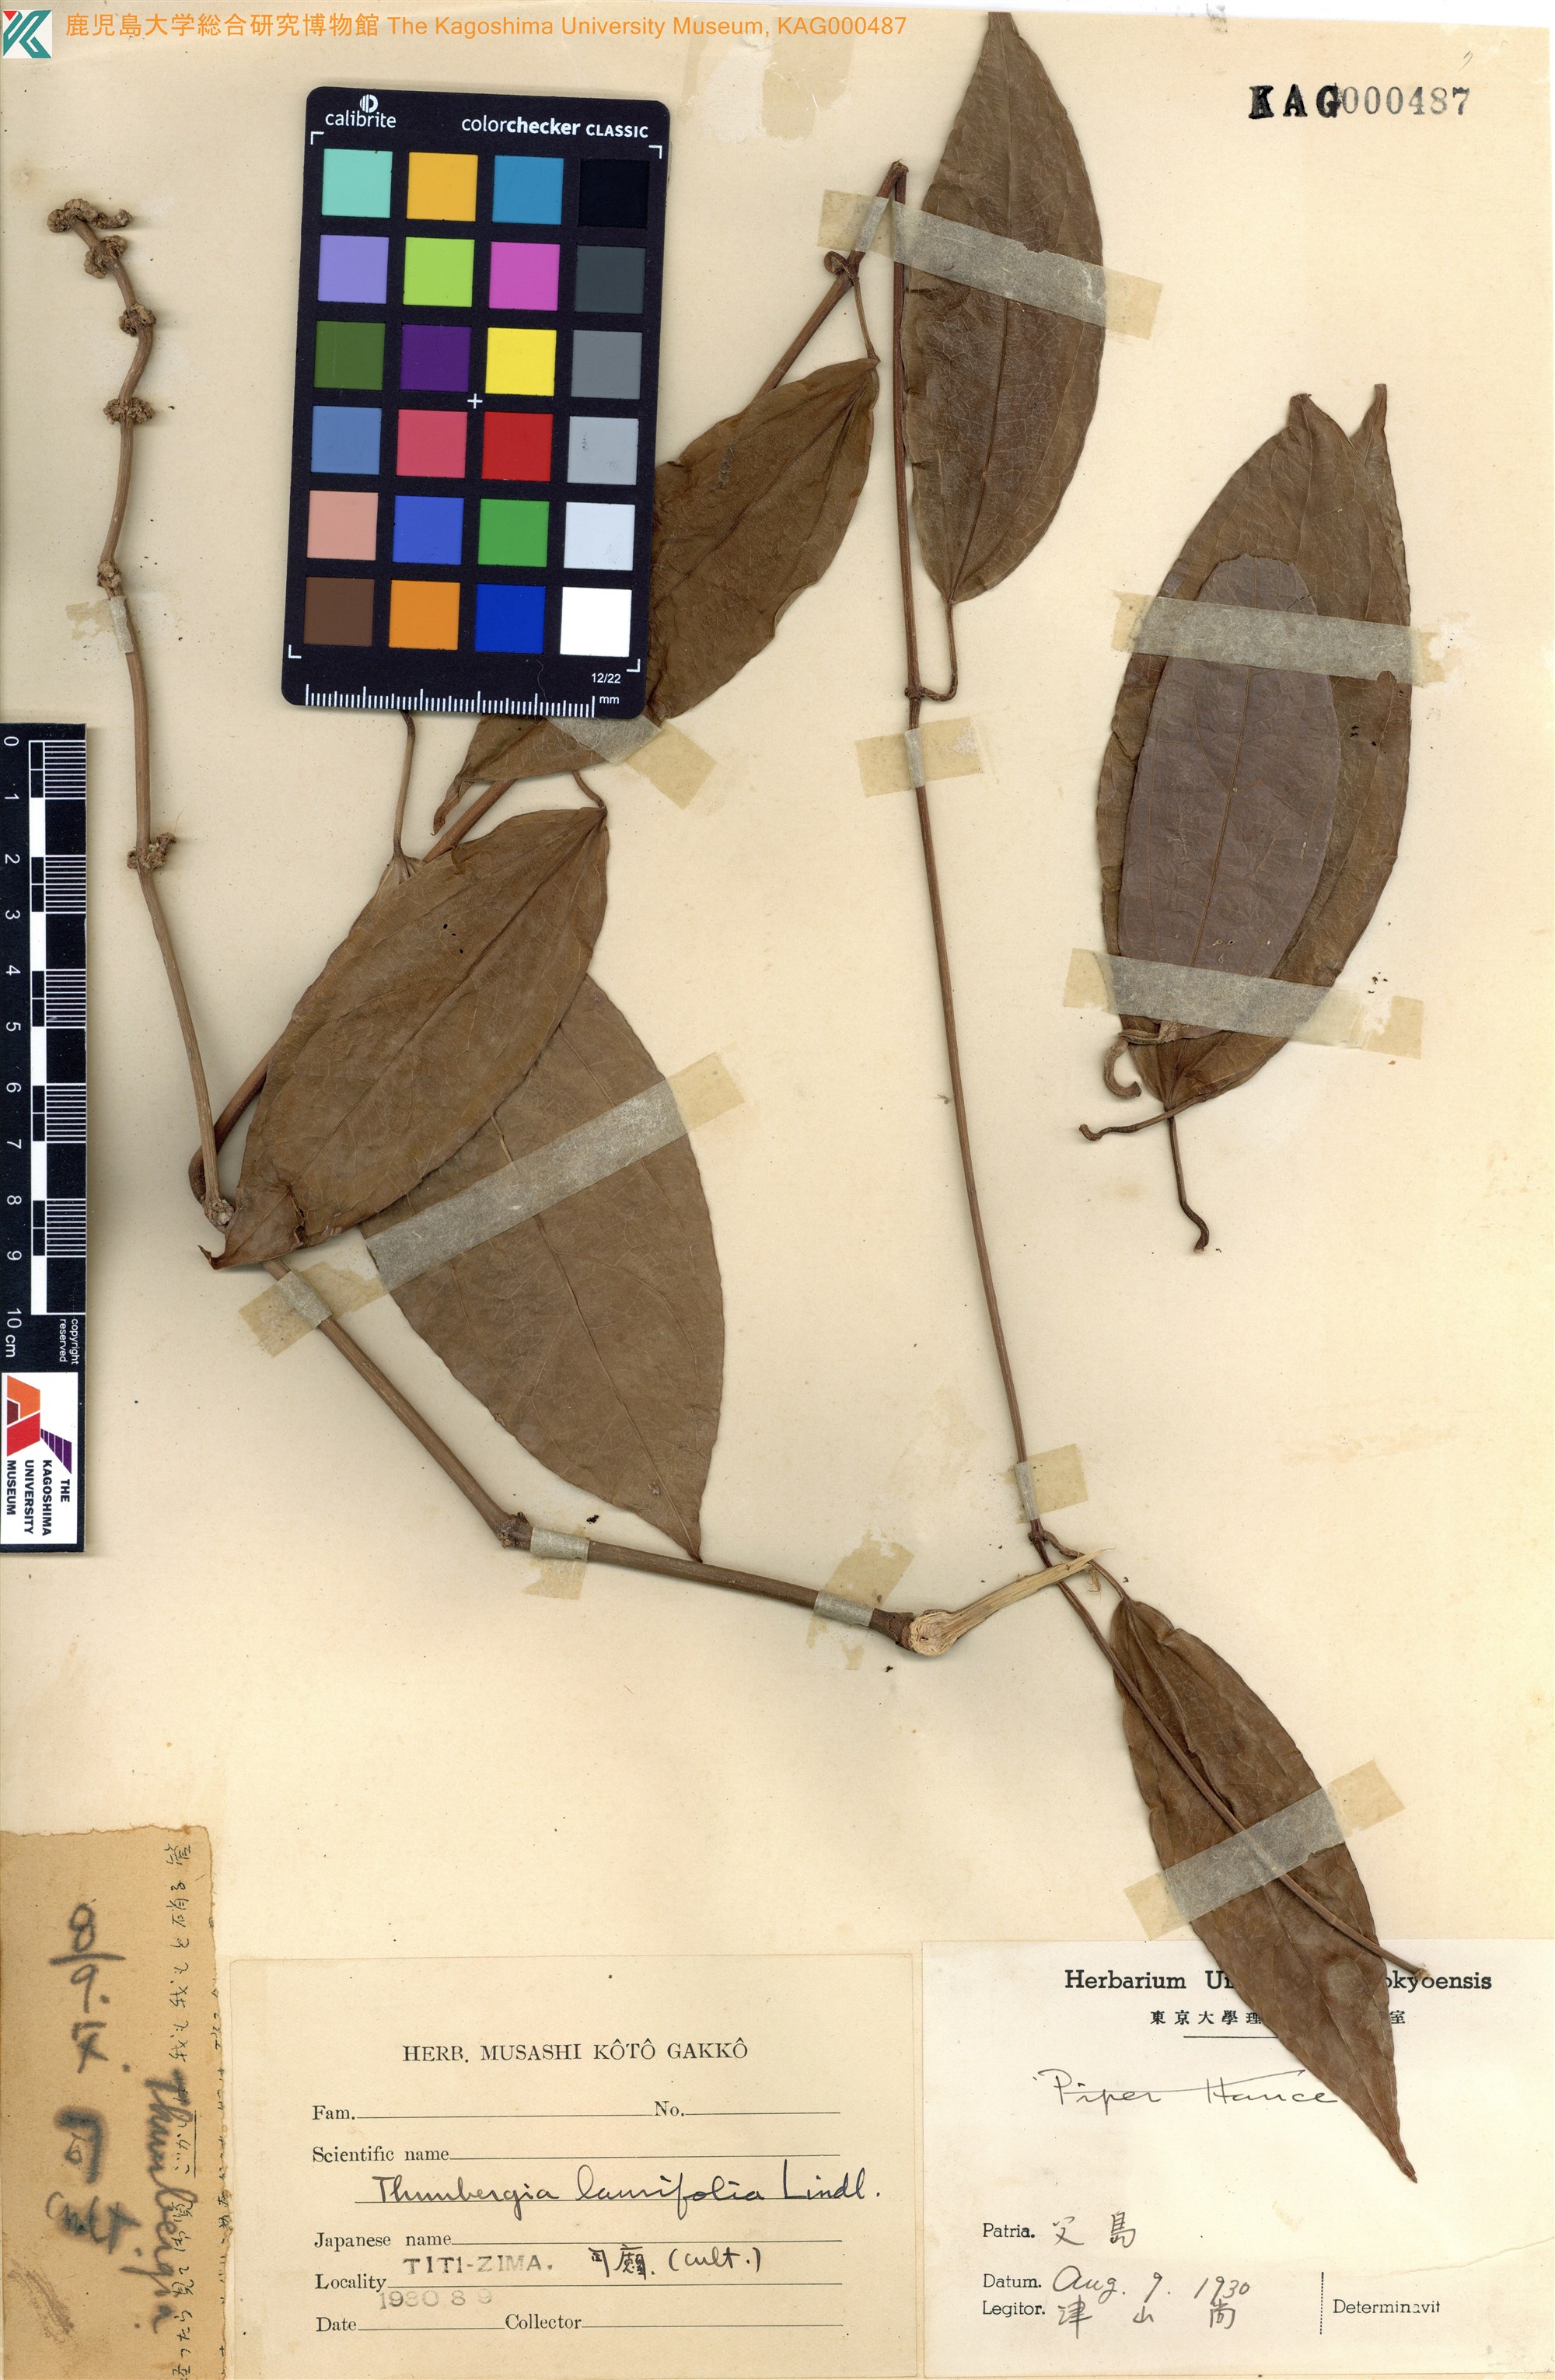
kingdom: Plantae
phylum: Tracheophyta
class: Magnoliopsida
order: Lamiales
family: Acanthaceae
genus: Thunbergia
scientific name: Thunbergia laurifolia
